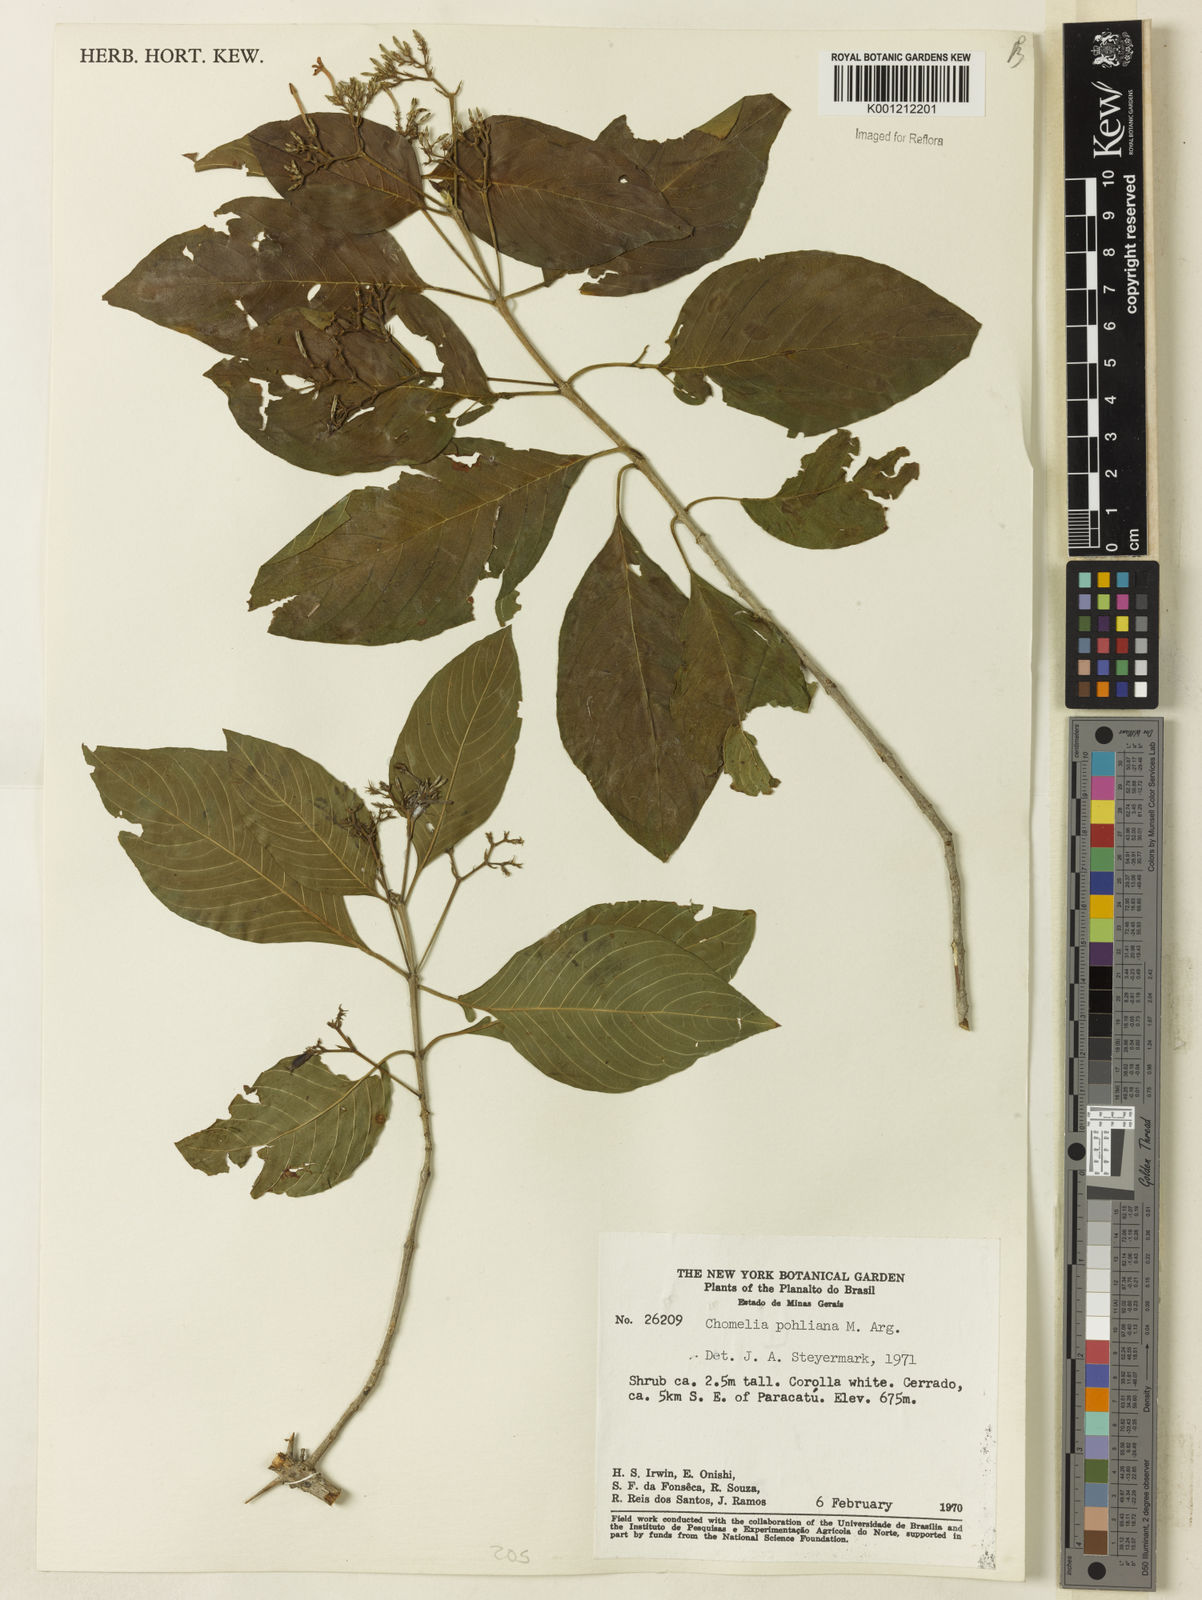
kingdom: Plantae
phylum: Tracheophyta
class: Magnoliopsida
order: Gentianales
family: Rubiaceae
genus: Chomelia
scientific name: Chomelia
